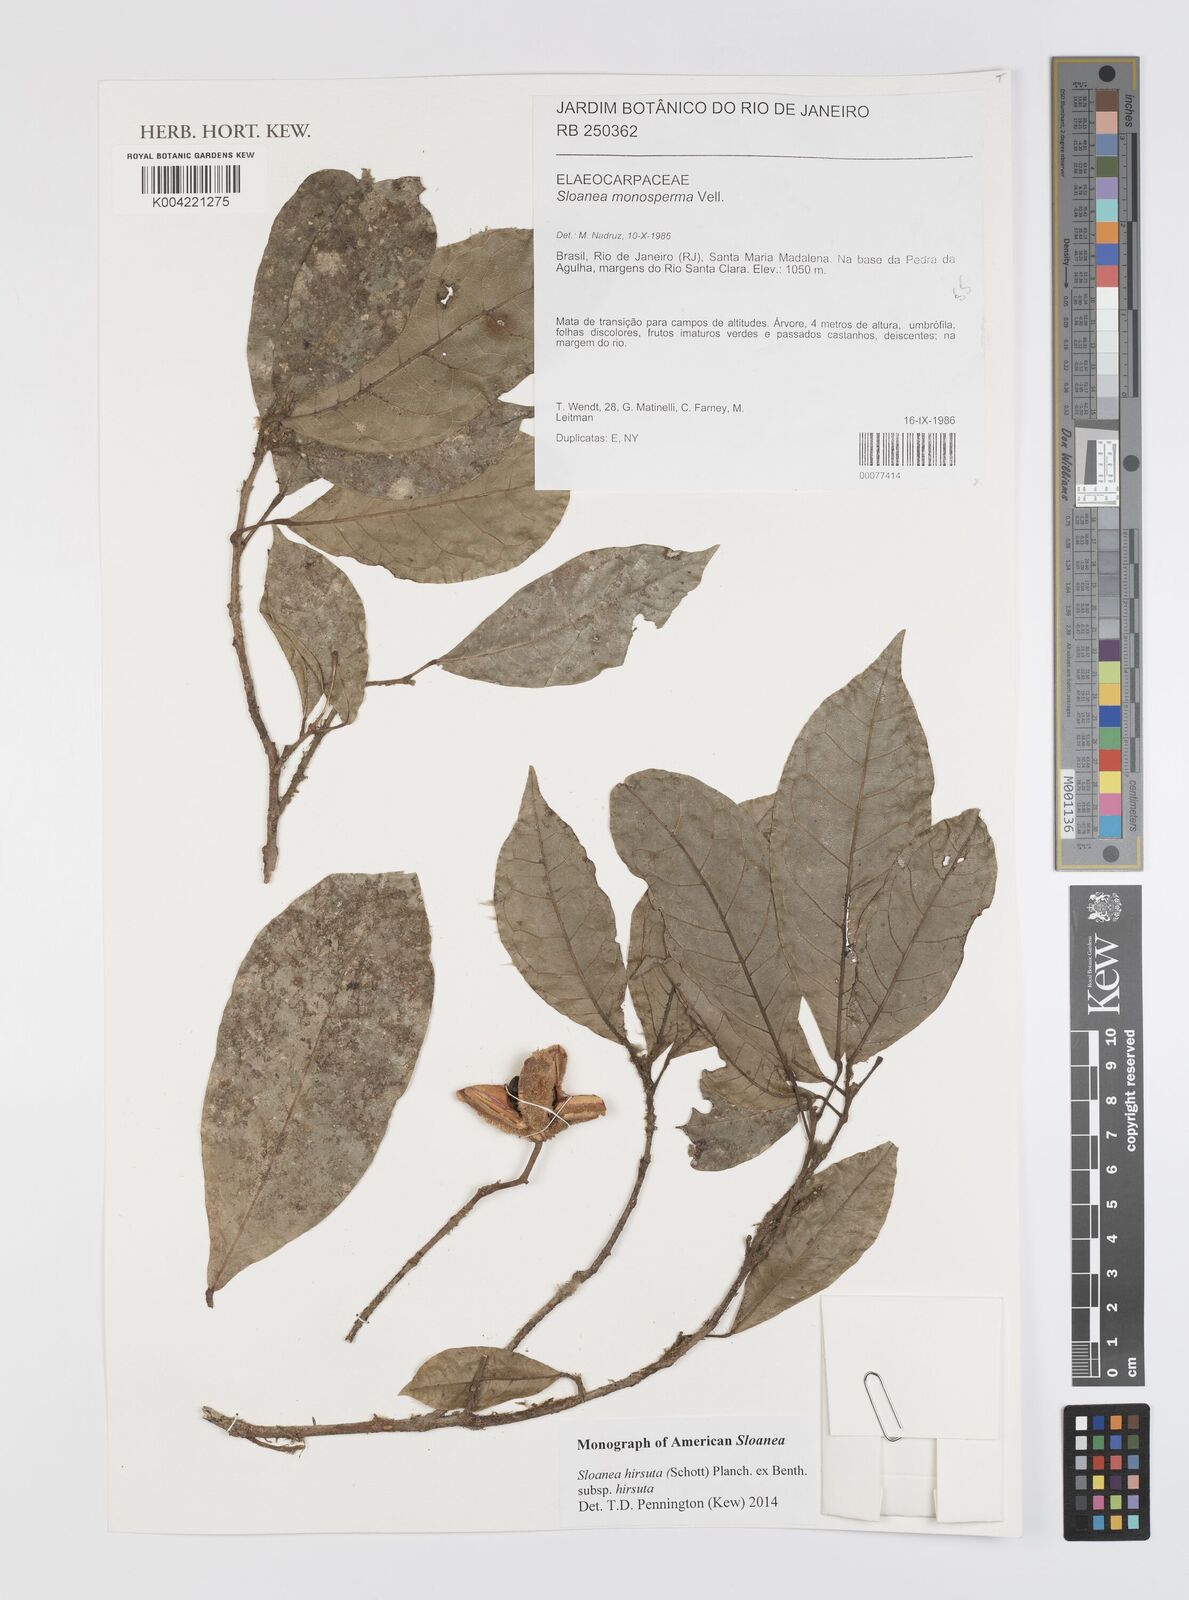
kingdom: Plantae
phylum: Tracheophyta
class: Magnoliopsida
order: Oxalidales
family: Elaeocarpaceae
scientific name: Elaeocarpaceae
